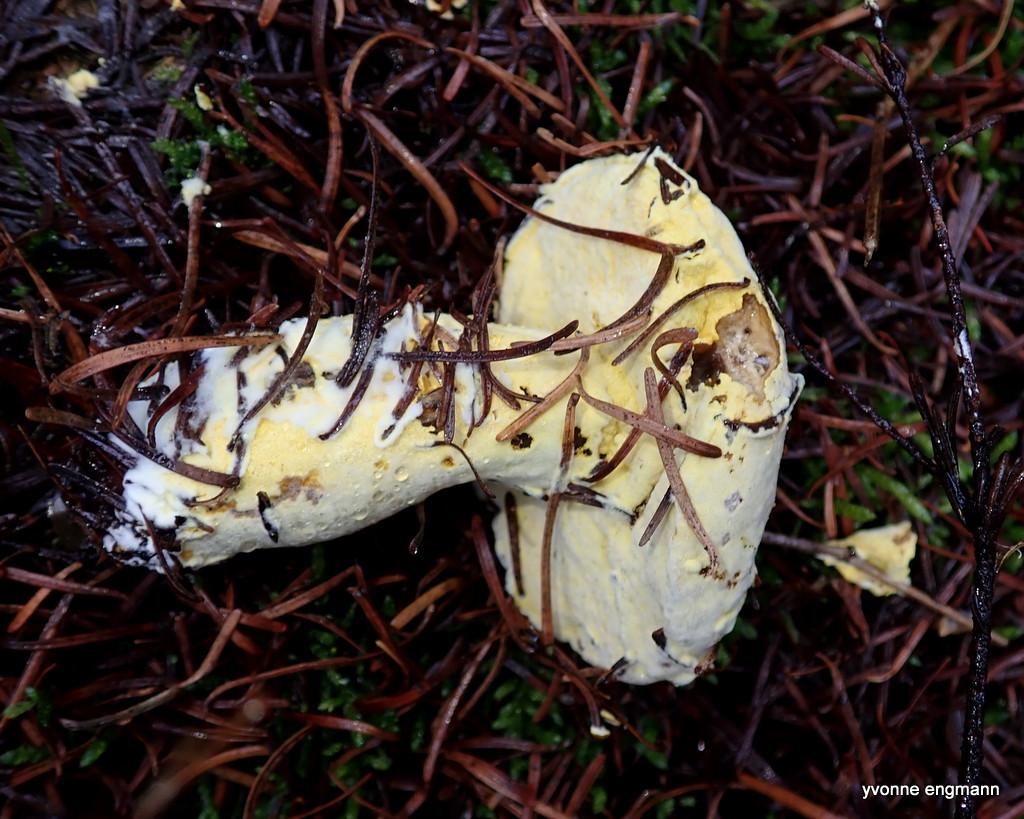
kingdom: Fungi
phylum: Ascomycota
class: Sordariomycetes
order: Hypocreales
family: Hypocreaceae
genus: Hypomyces
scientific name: Hypomyces
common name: snylteskorpe
